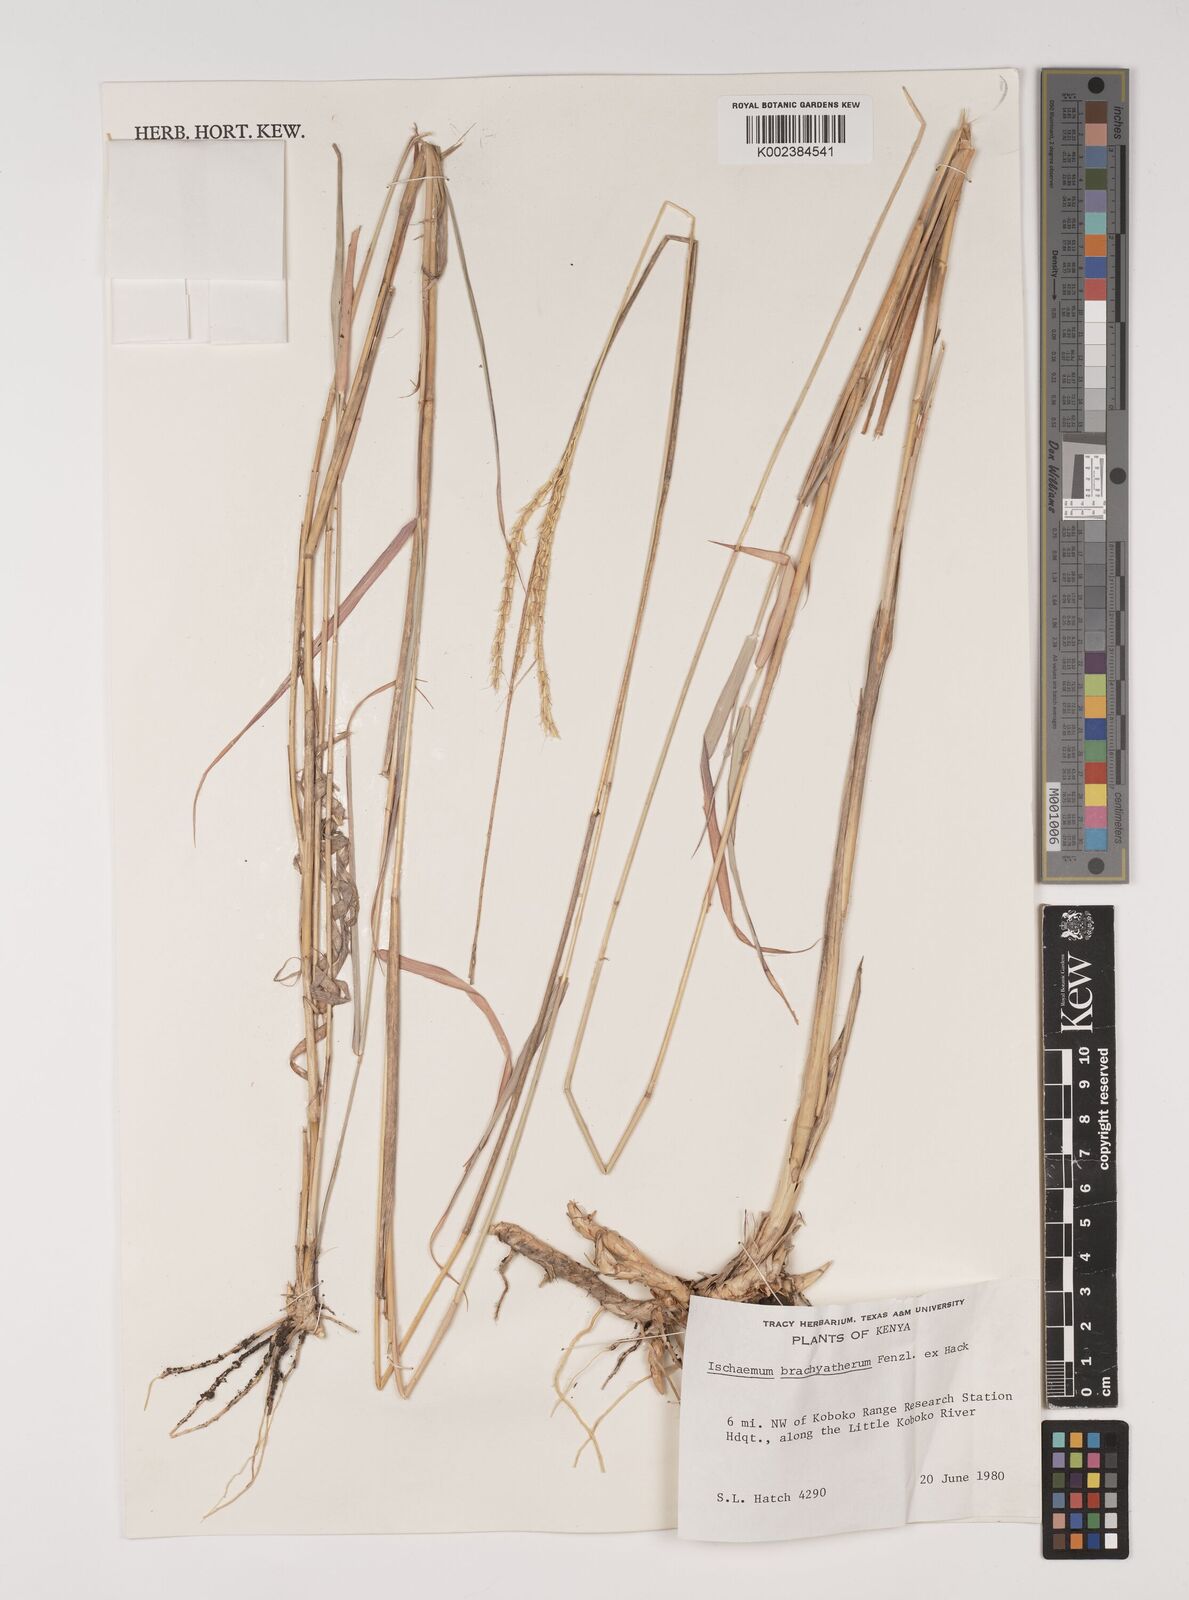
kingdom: Plantae
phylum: Tracheophyta
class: Liliopsida
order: Poales
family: Poaceae
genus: Ischaemum
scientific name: Ischaemum afrum
